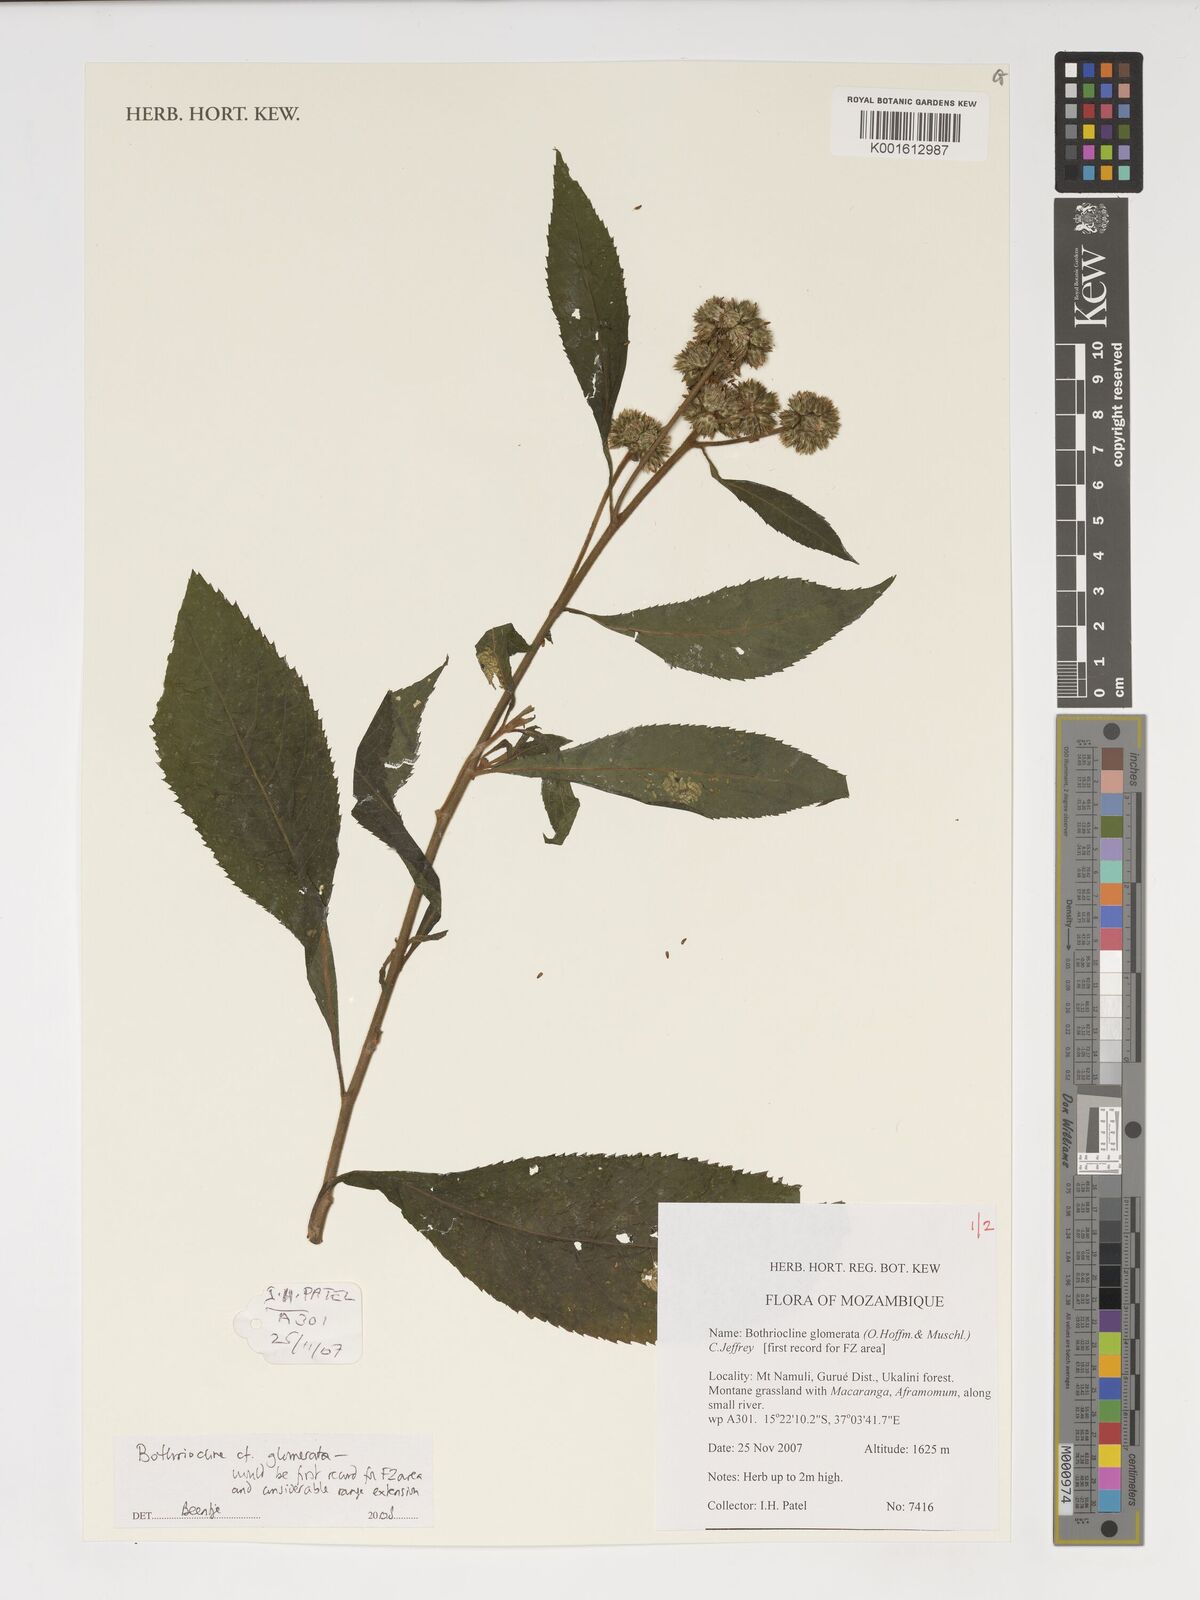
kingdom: Plantae
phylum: Tracheophyta
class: Magnoliopsida
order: Asterales
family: Asteraceae
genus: Bothriocline
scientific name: Bothriocline glomerata
